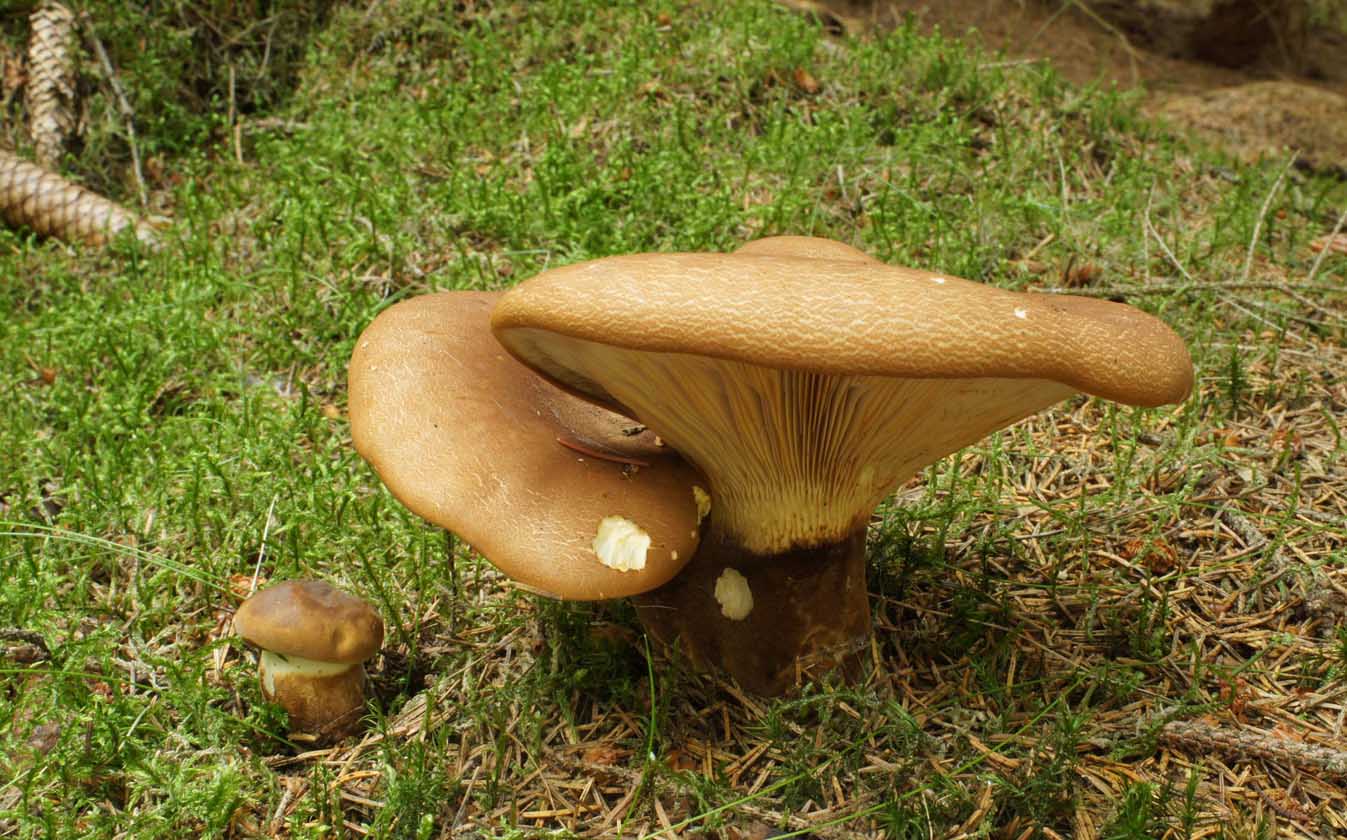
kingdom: Fungi
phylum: Basidiomycota
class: Agaricomycetes
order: Boletales
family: Tapinellaceae
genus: Tapinella
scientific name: Tapinella atrotomentosa
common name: sortfiltet viftesvamp
